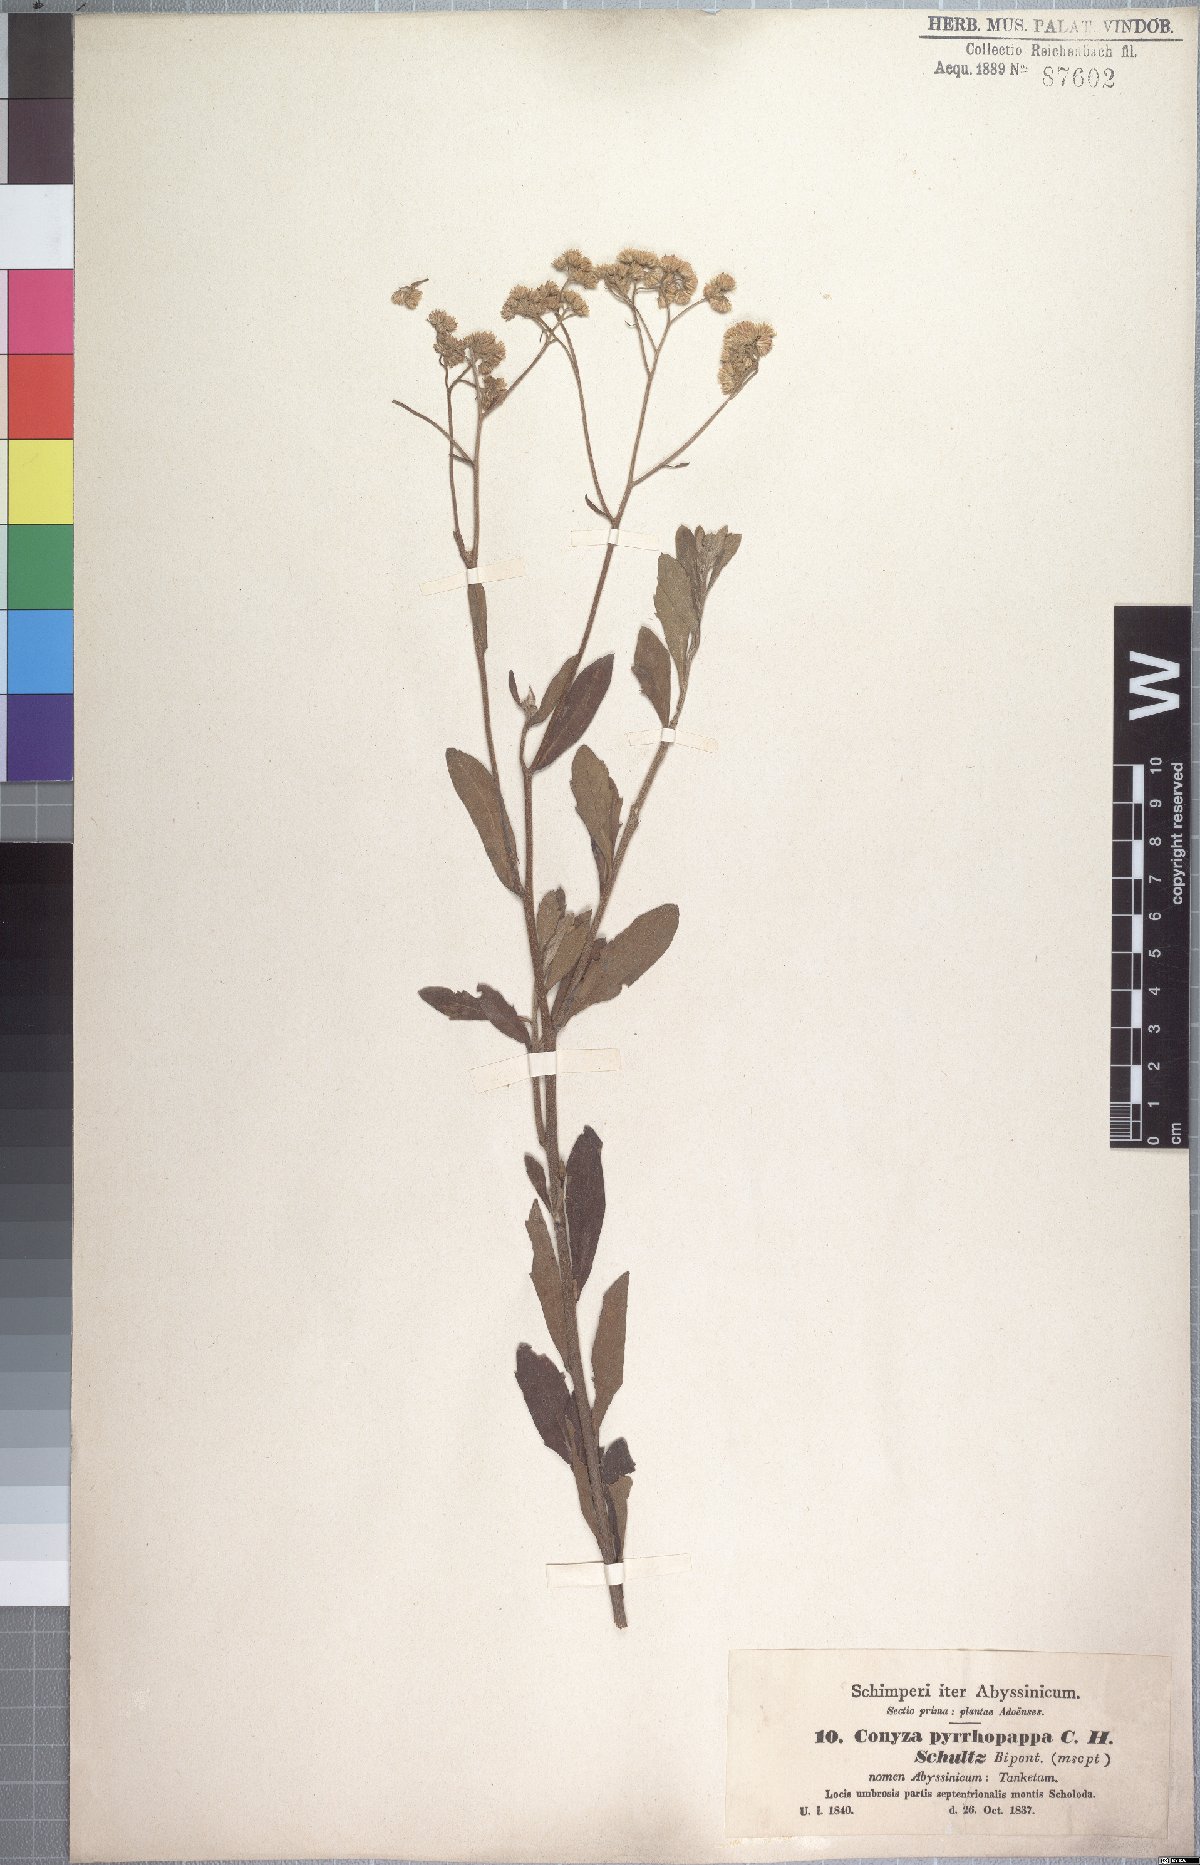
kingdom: Plantae
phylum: Tracheophyta
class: Magnoliopsida
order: Asterales
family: Asteraceae
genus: Microglossa
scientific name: Microglossa pyrrhopappa
